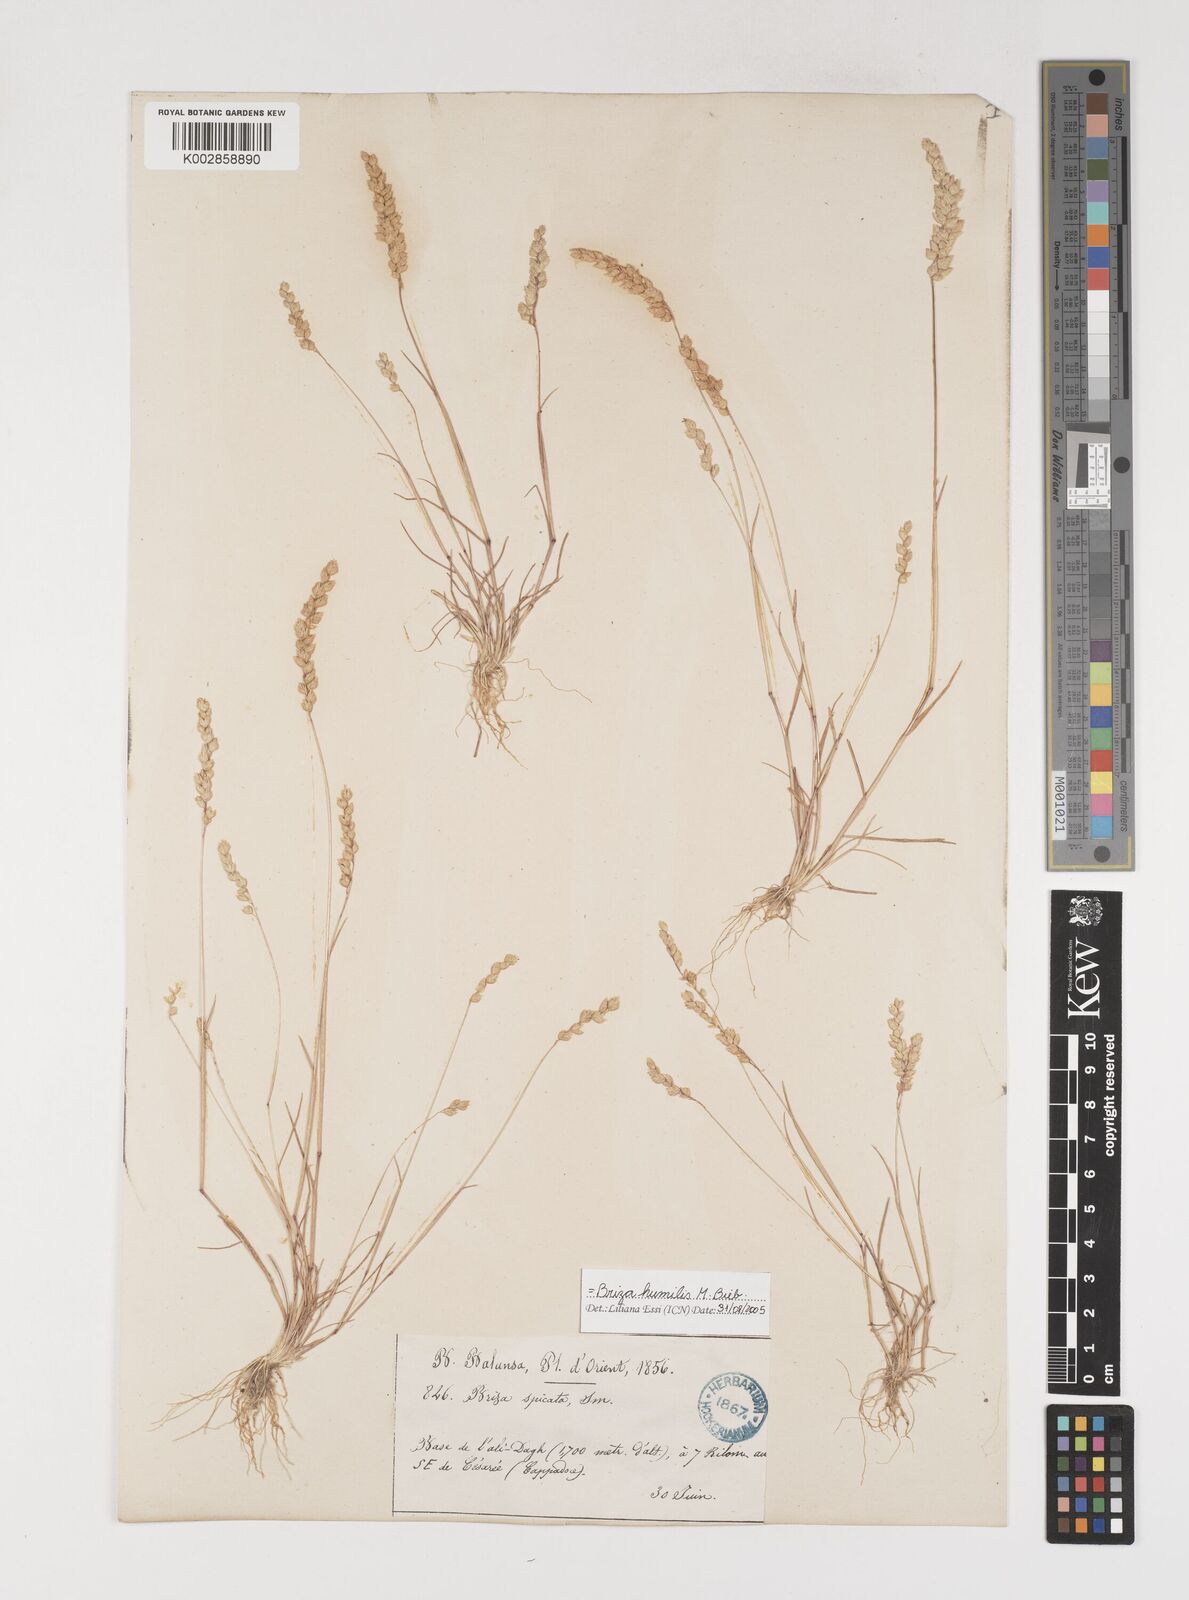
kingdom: Plantae
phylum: Tracheophyta
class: Liliopsida
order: Poales
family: Poaceae
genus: Briza
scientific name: Briza humilis
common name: Spiked quaking grass
